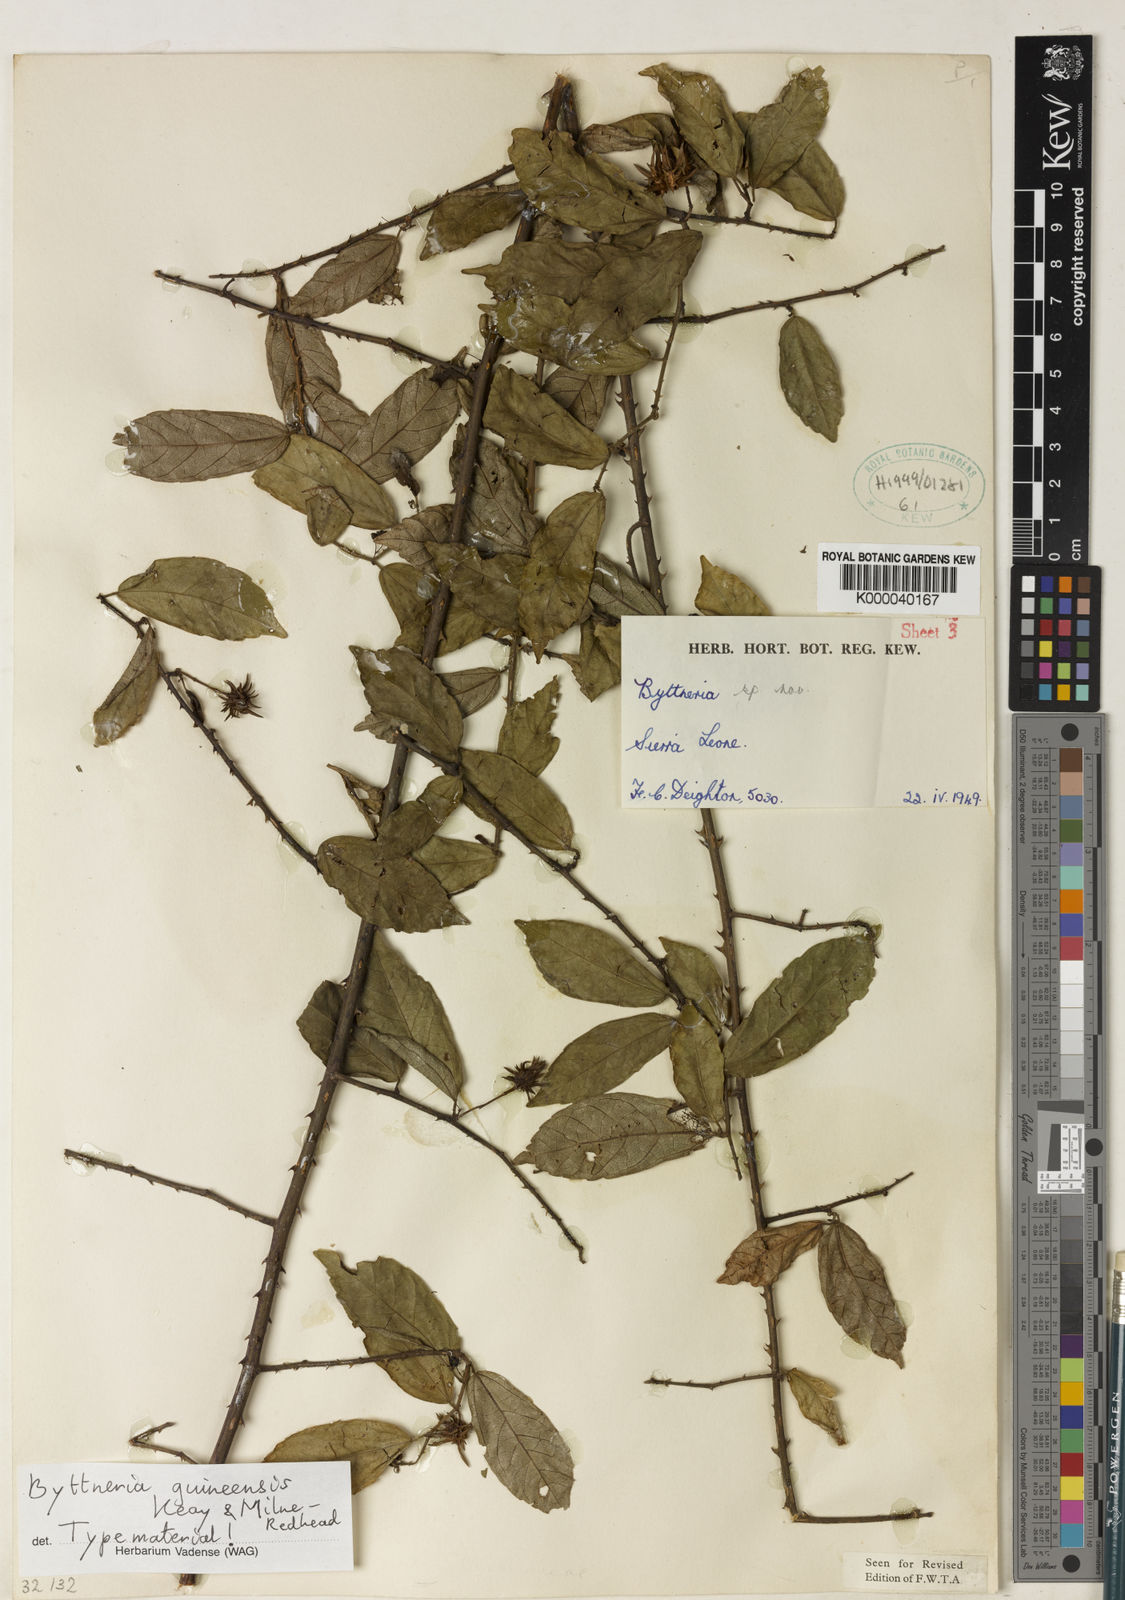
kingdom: Plantae
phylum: Tracheophyta
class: Magnoliopsida
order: Malvales
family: Malvaceae
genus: Byttneria
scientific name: Byttneria guineensis
